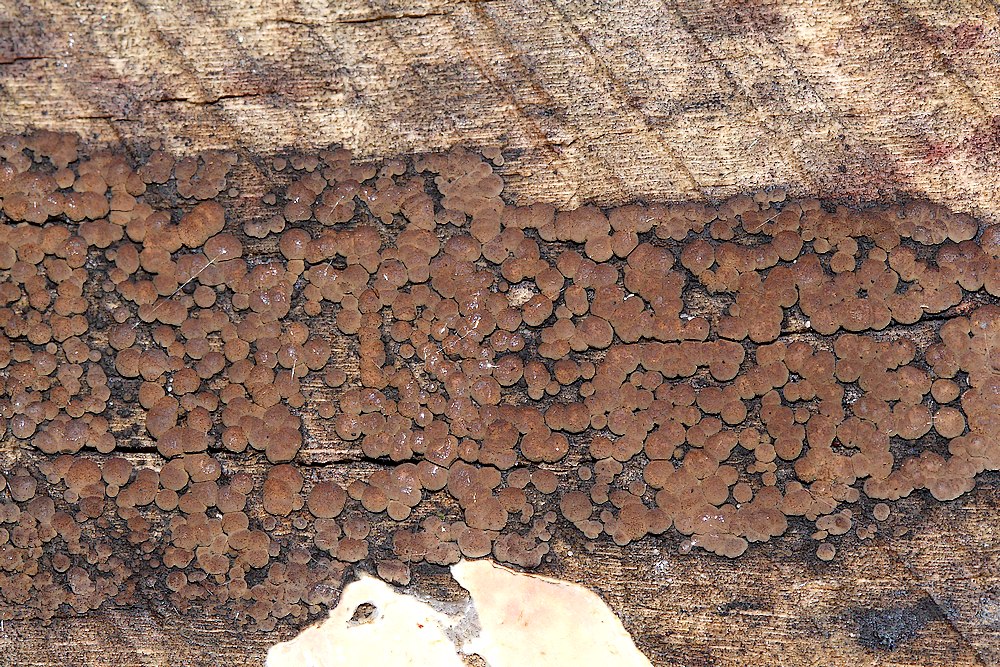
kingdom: Fungi
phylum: Ascomycota
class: Sordariomycetes
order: Xylariales
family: Hypoxylaceae
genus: Hypoxylon
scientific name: Hypoxylon fragiforme
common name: kuljordbær
